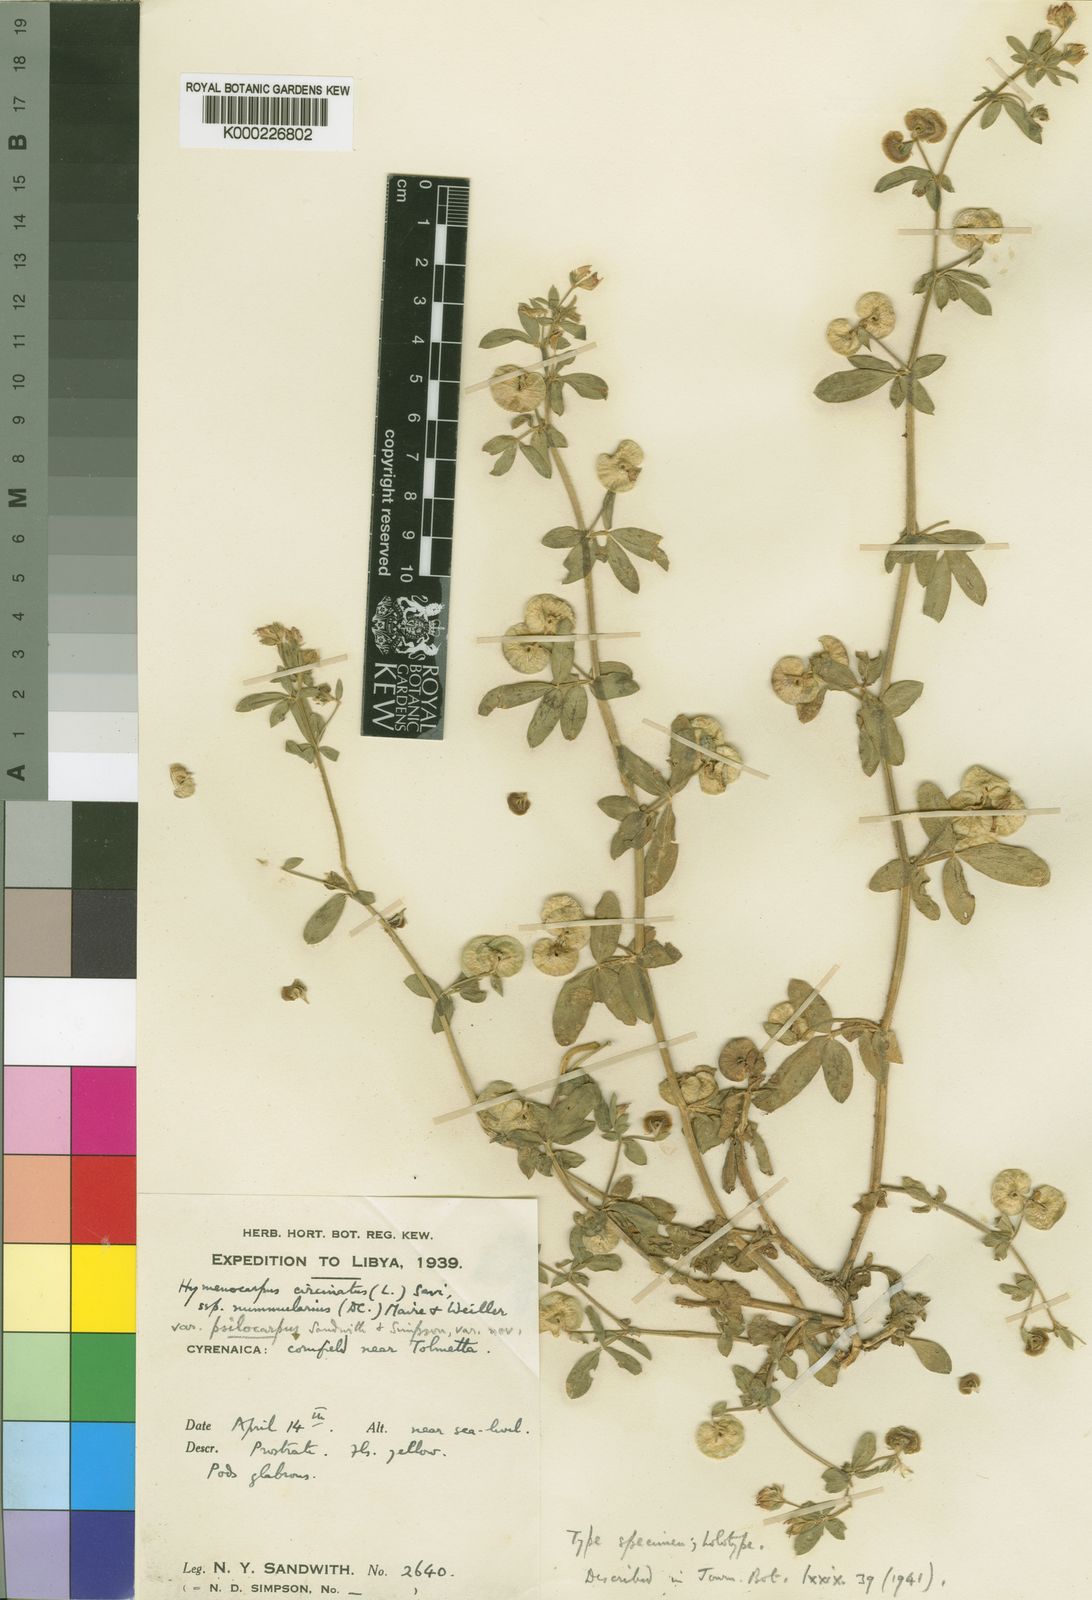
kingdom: Plantae
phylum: Tracheophyta
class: Magnoliopsida
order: Fabales
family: Fabaceae
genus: Anthyllis
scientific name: Anthyllis circinnata
